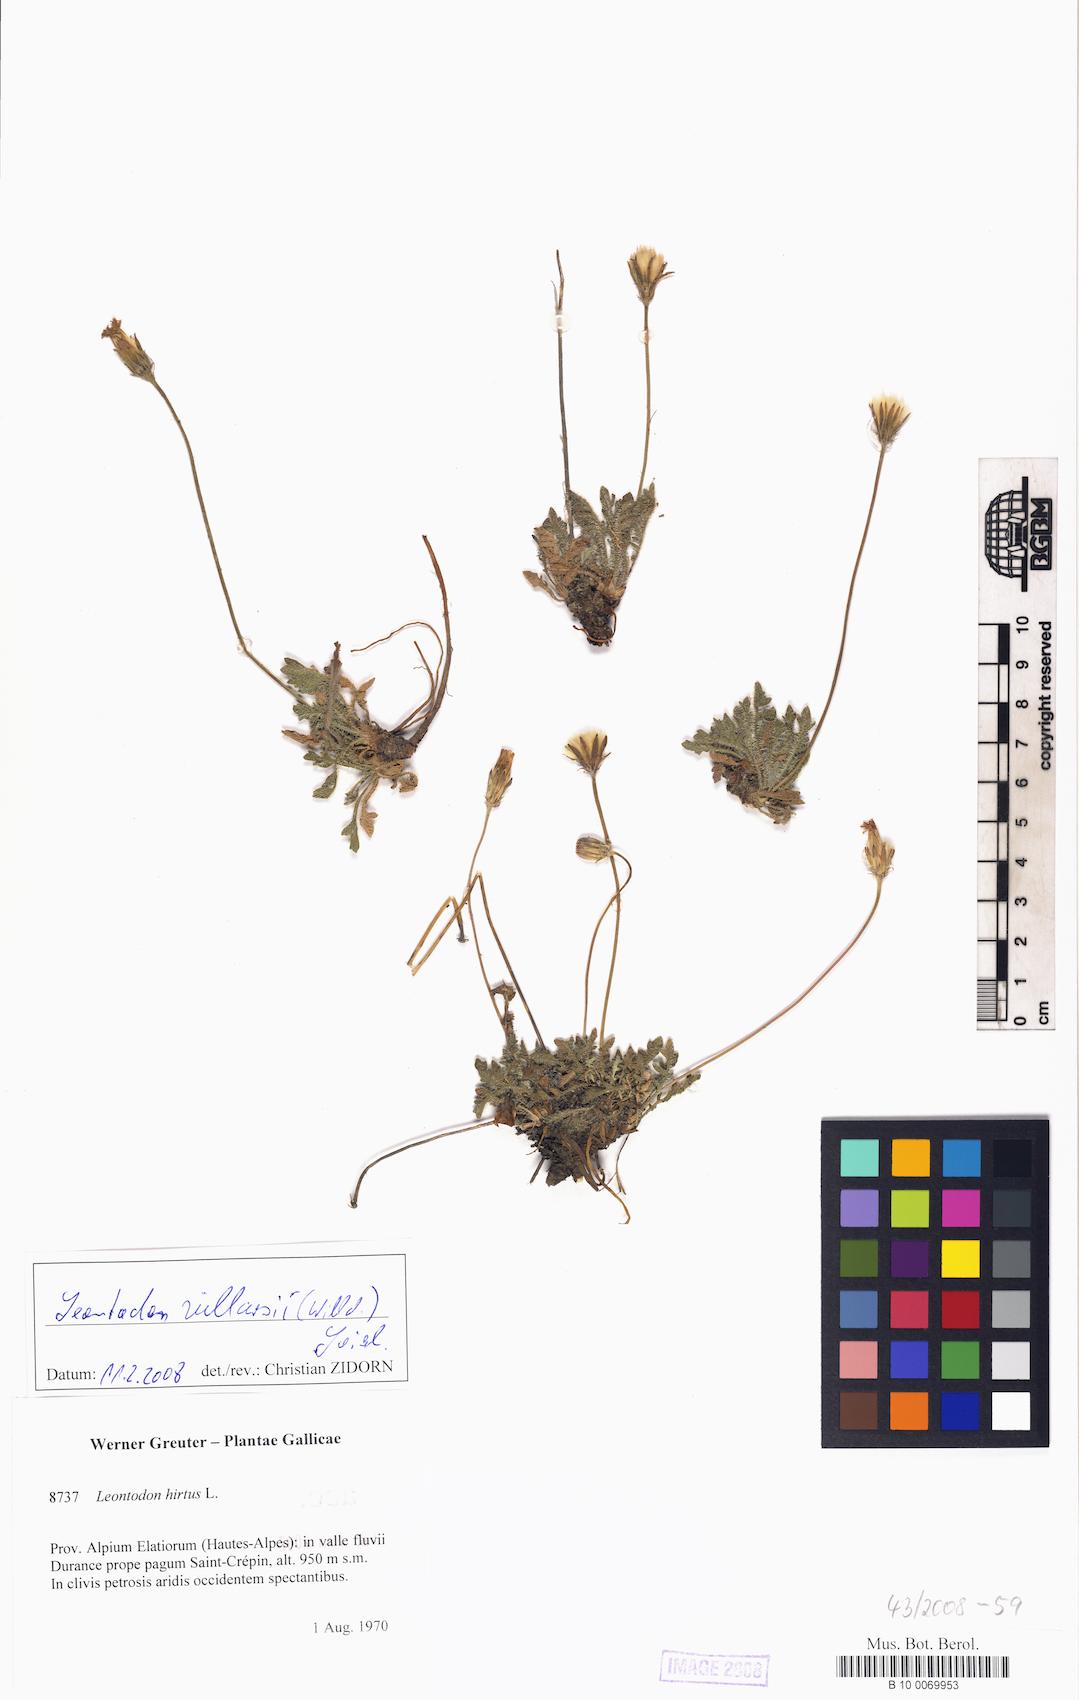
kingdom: Plantae
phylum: Tracheophyta
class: Magnoliopsida
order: Asterales
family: Asteraceae
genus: Leontodon
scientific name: Leontodon hirtus
